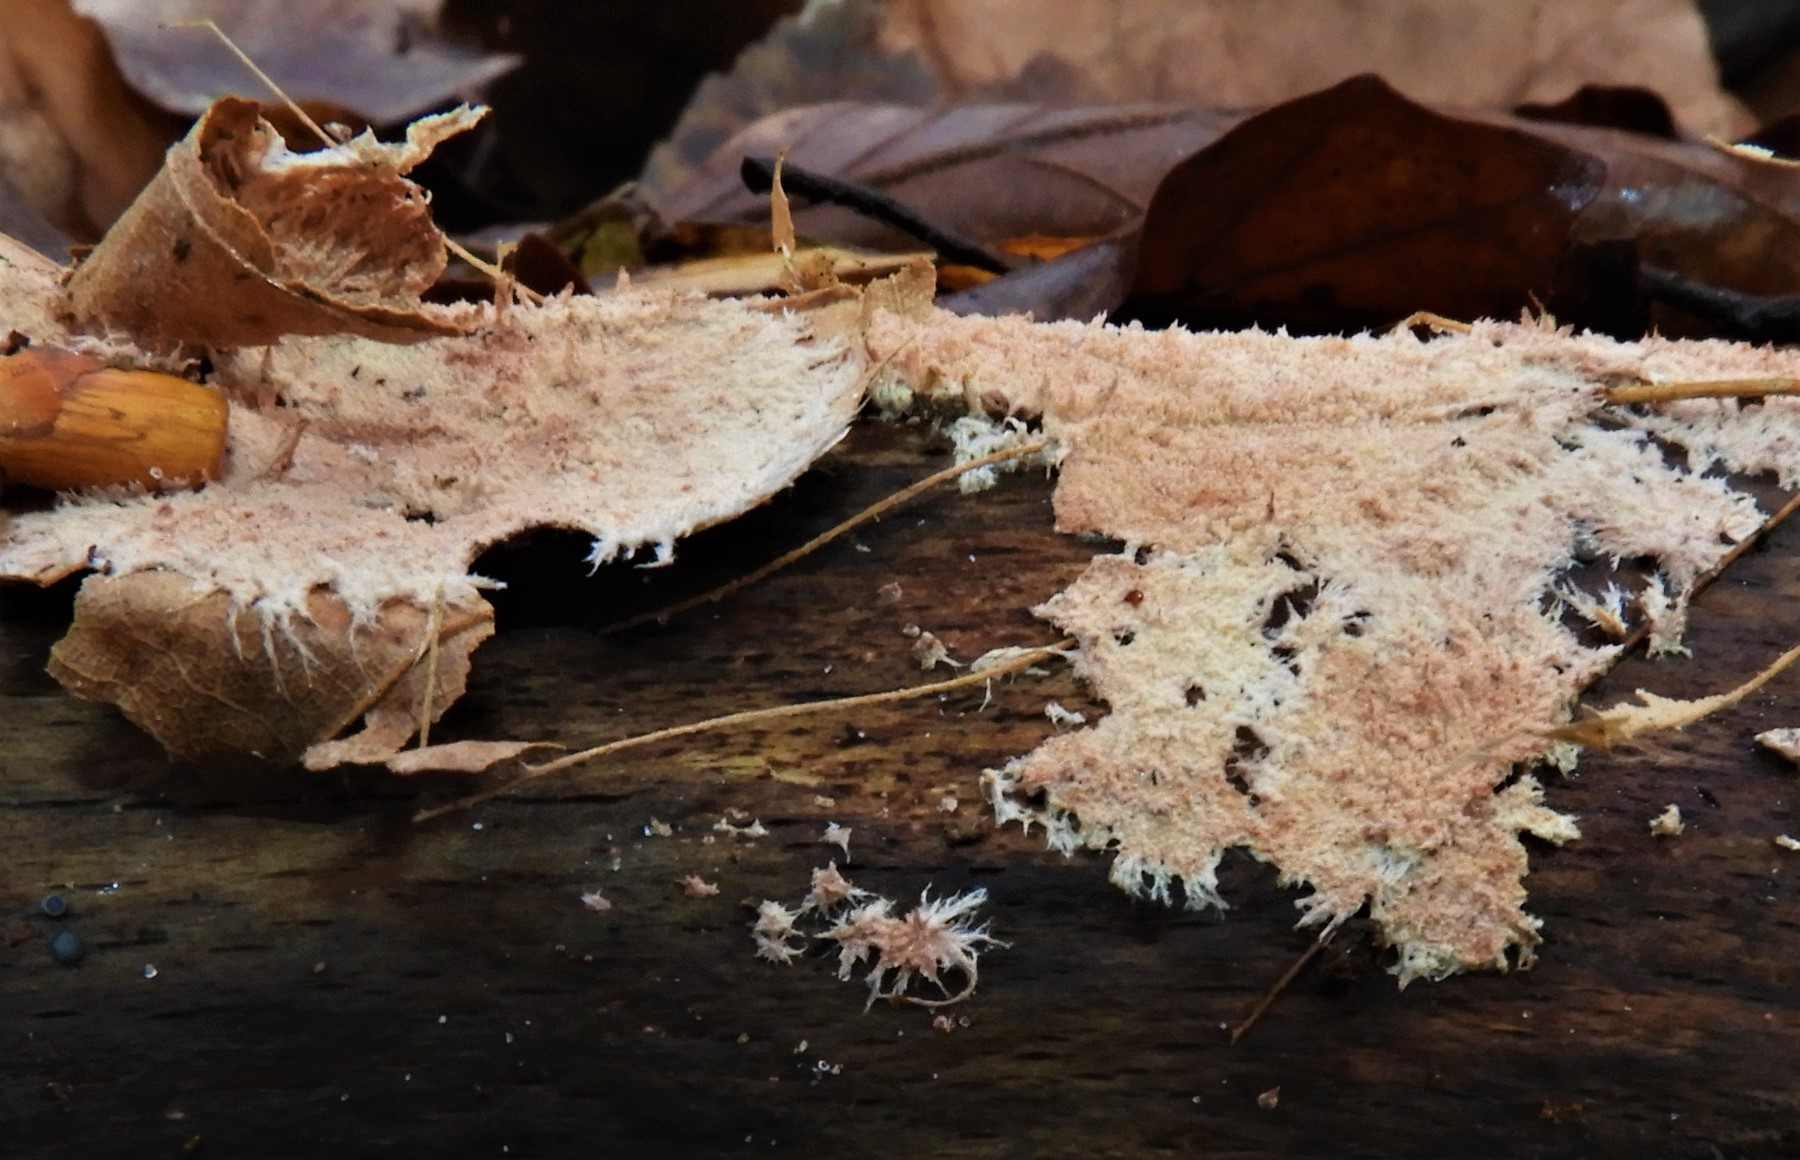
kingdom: Fungi
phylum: Basidiomycota
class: Agaricomycetes
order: Polyporales
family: Steccherinaceae
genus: Steccherinum
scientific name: Steccherinum fimbriatum
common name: trådet skønpig
